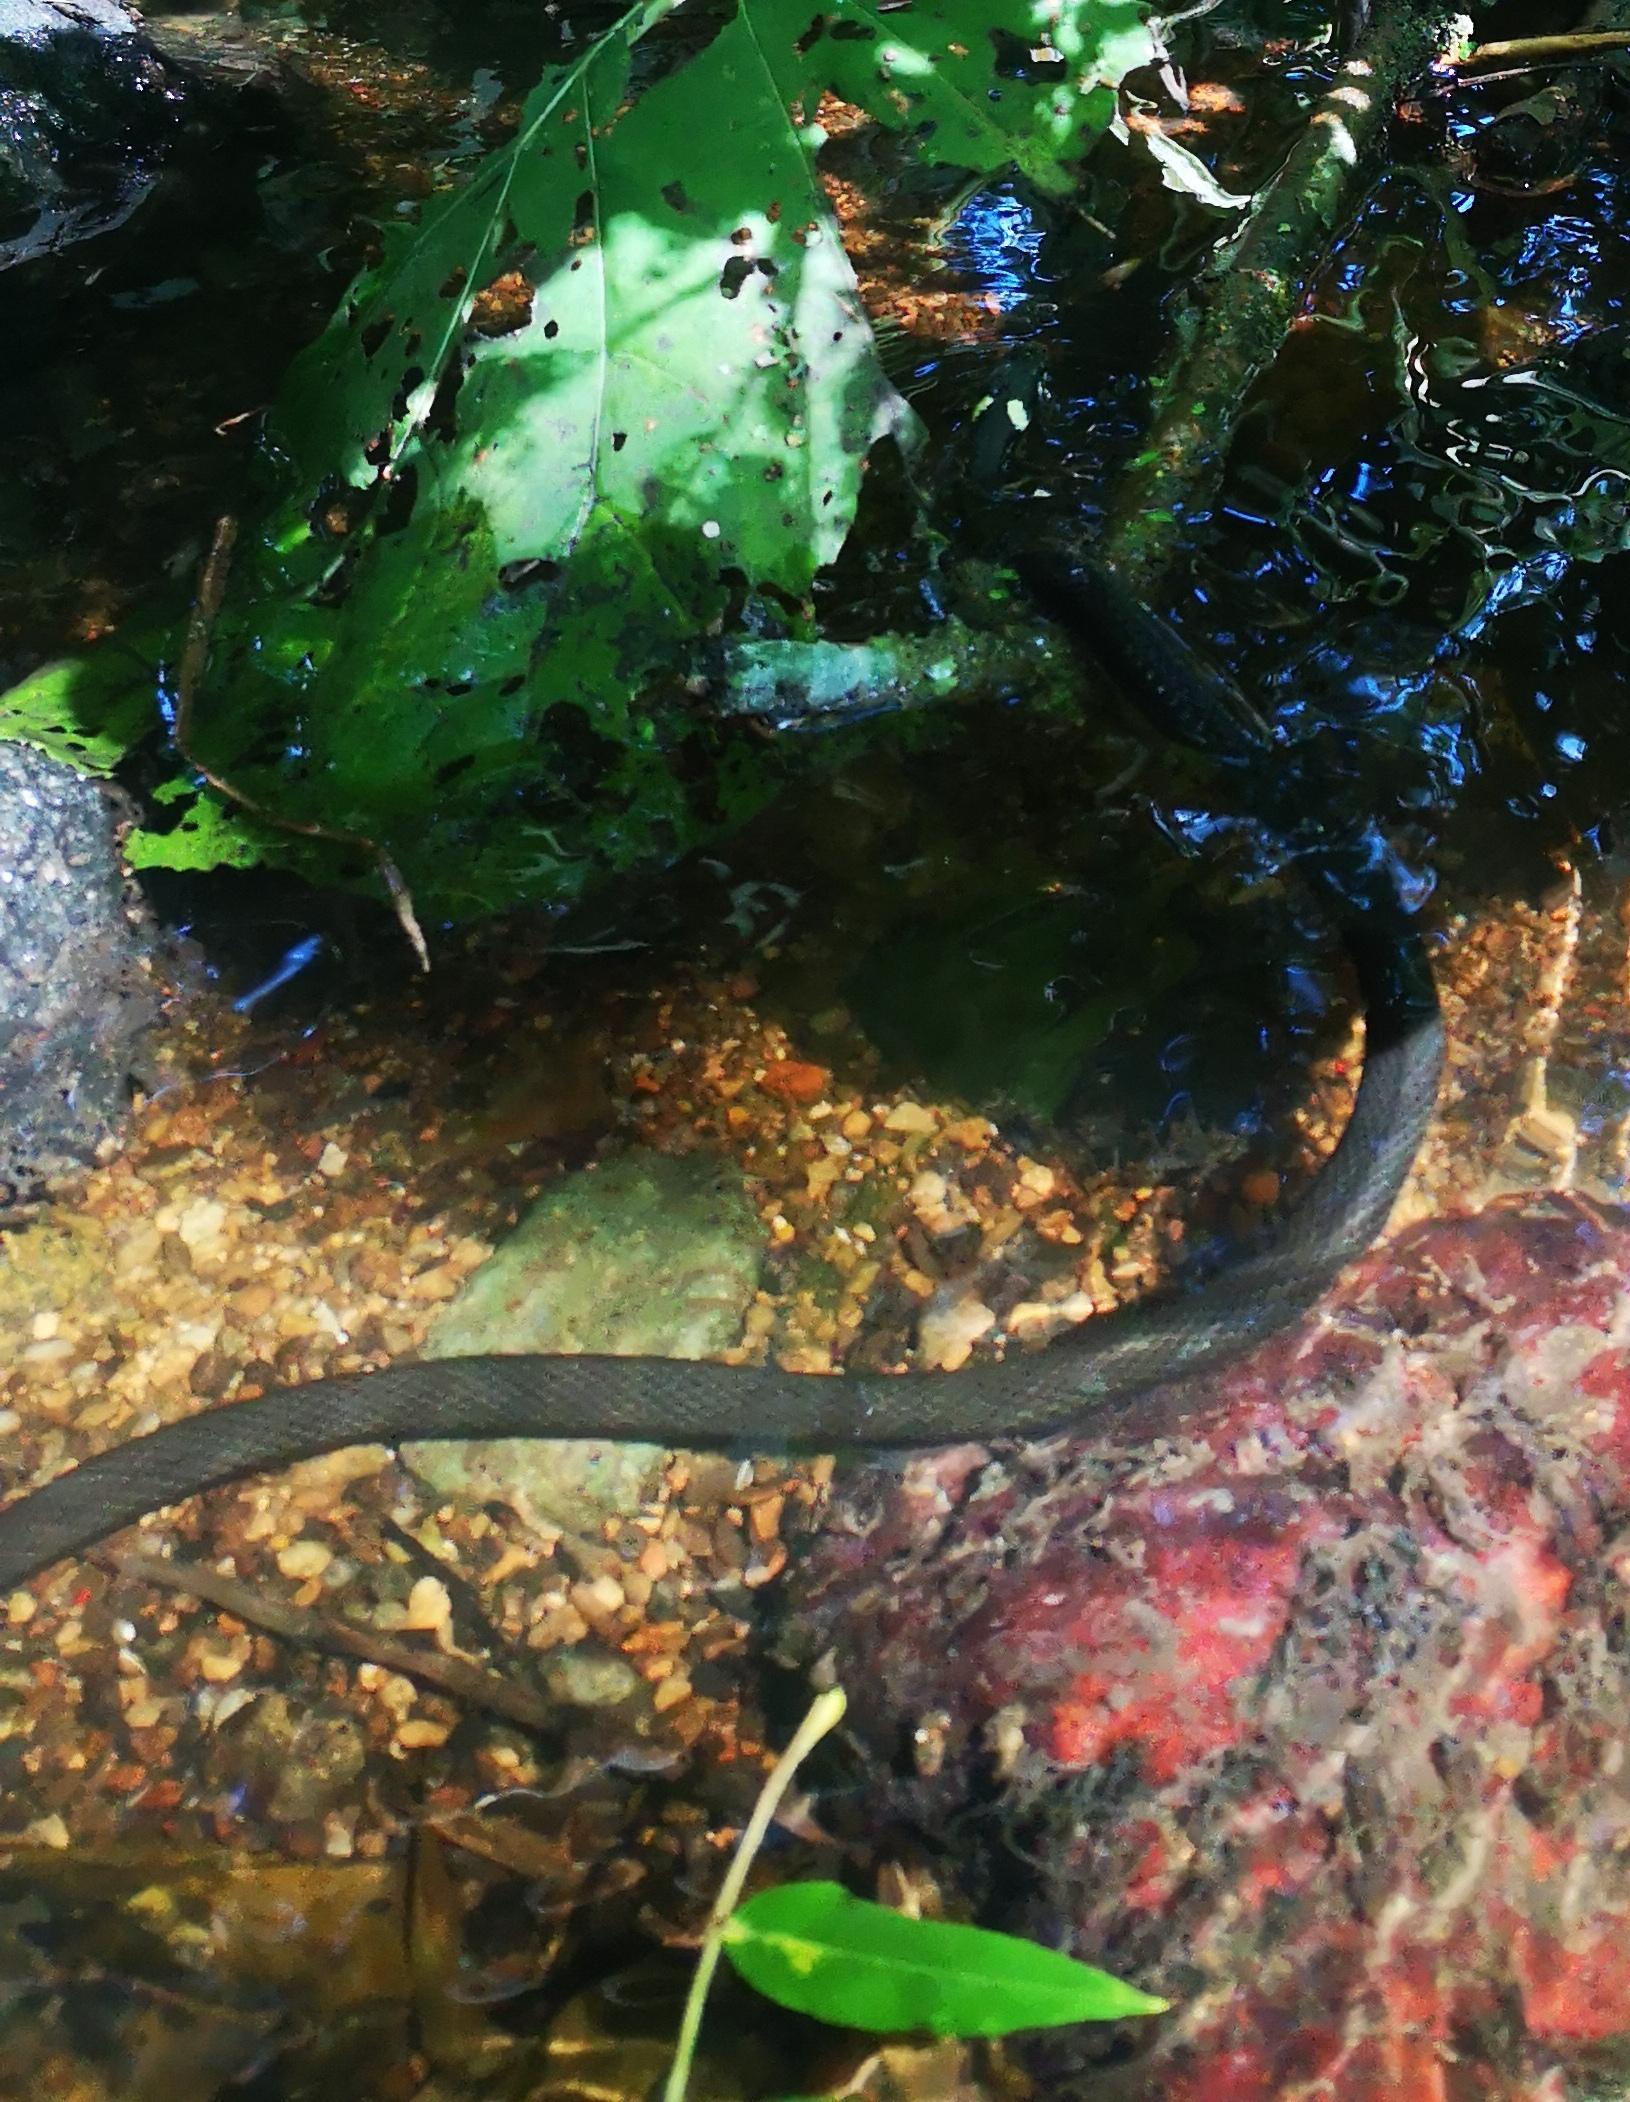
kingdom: Animalia
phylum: Chordata
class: Squamata
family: Colubridae
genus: Natrix
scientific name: Natrix natrix
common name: Snog
